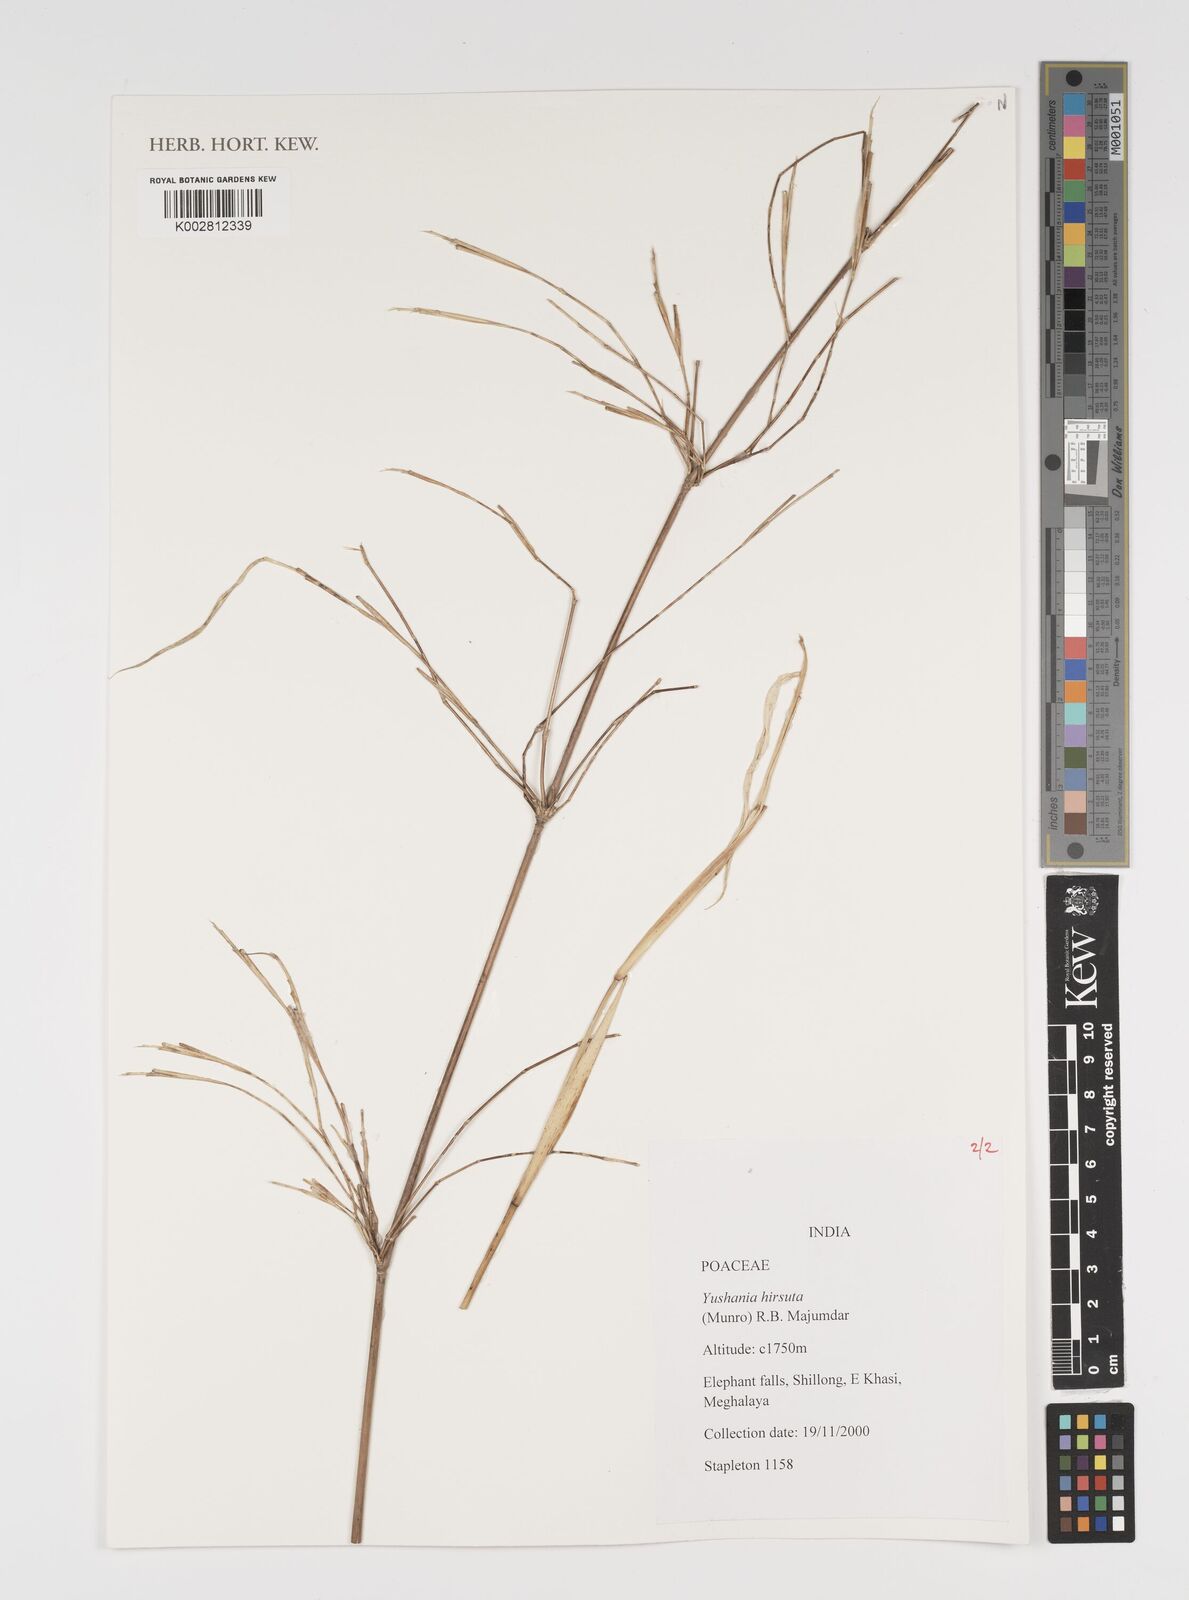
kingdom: Plantae
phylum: Tracheophyta
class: Liliopsida
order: Poales
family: Poaceae
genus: Yushania
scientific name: Yushania hirsuta
